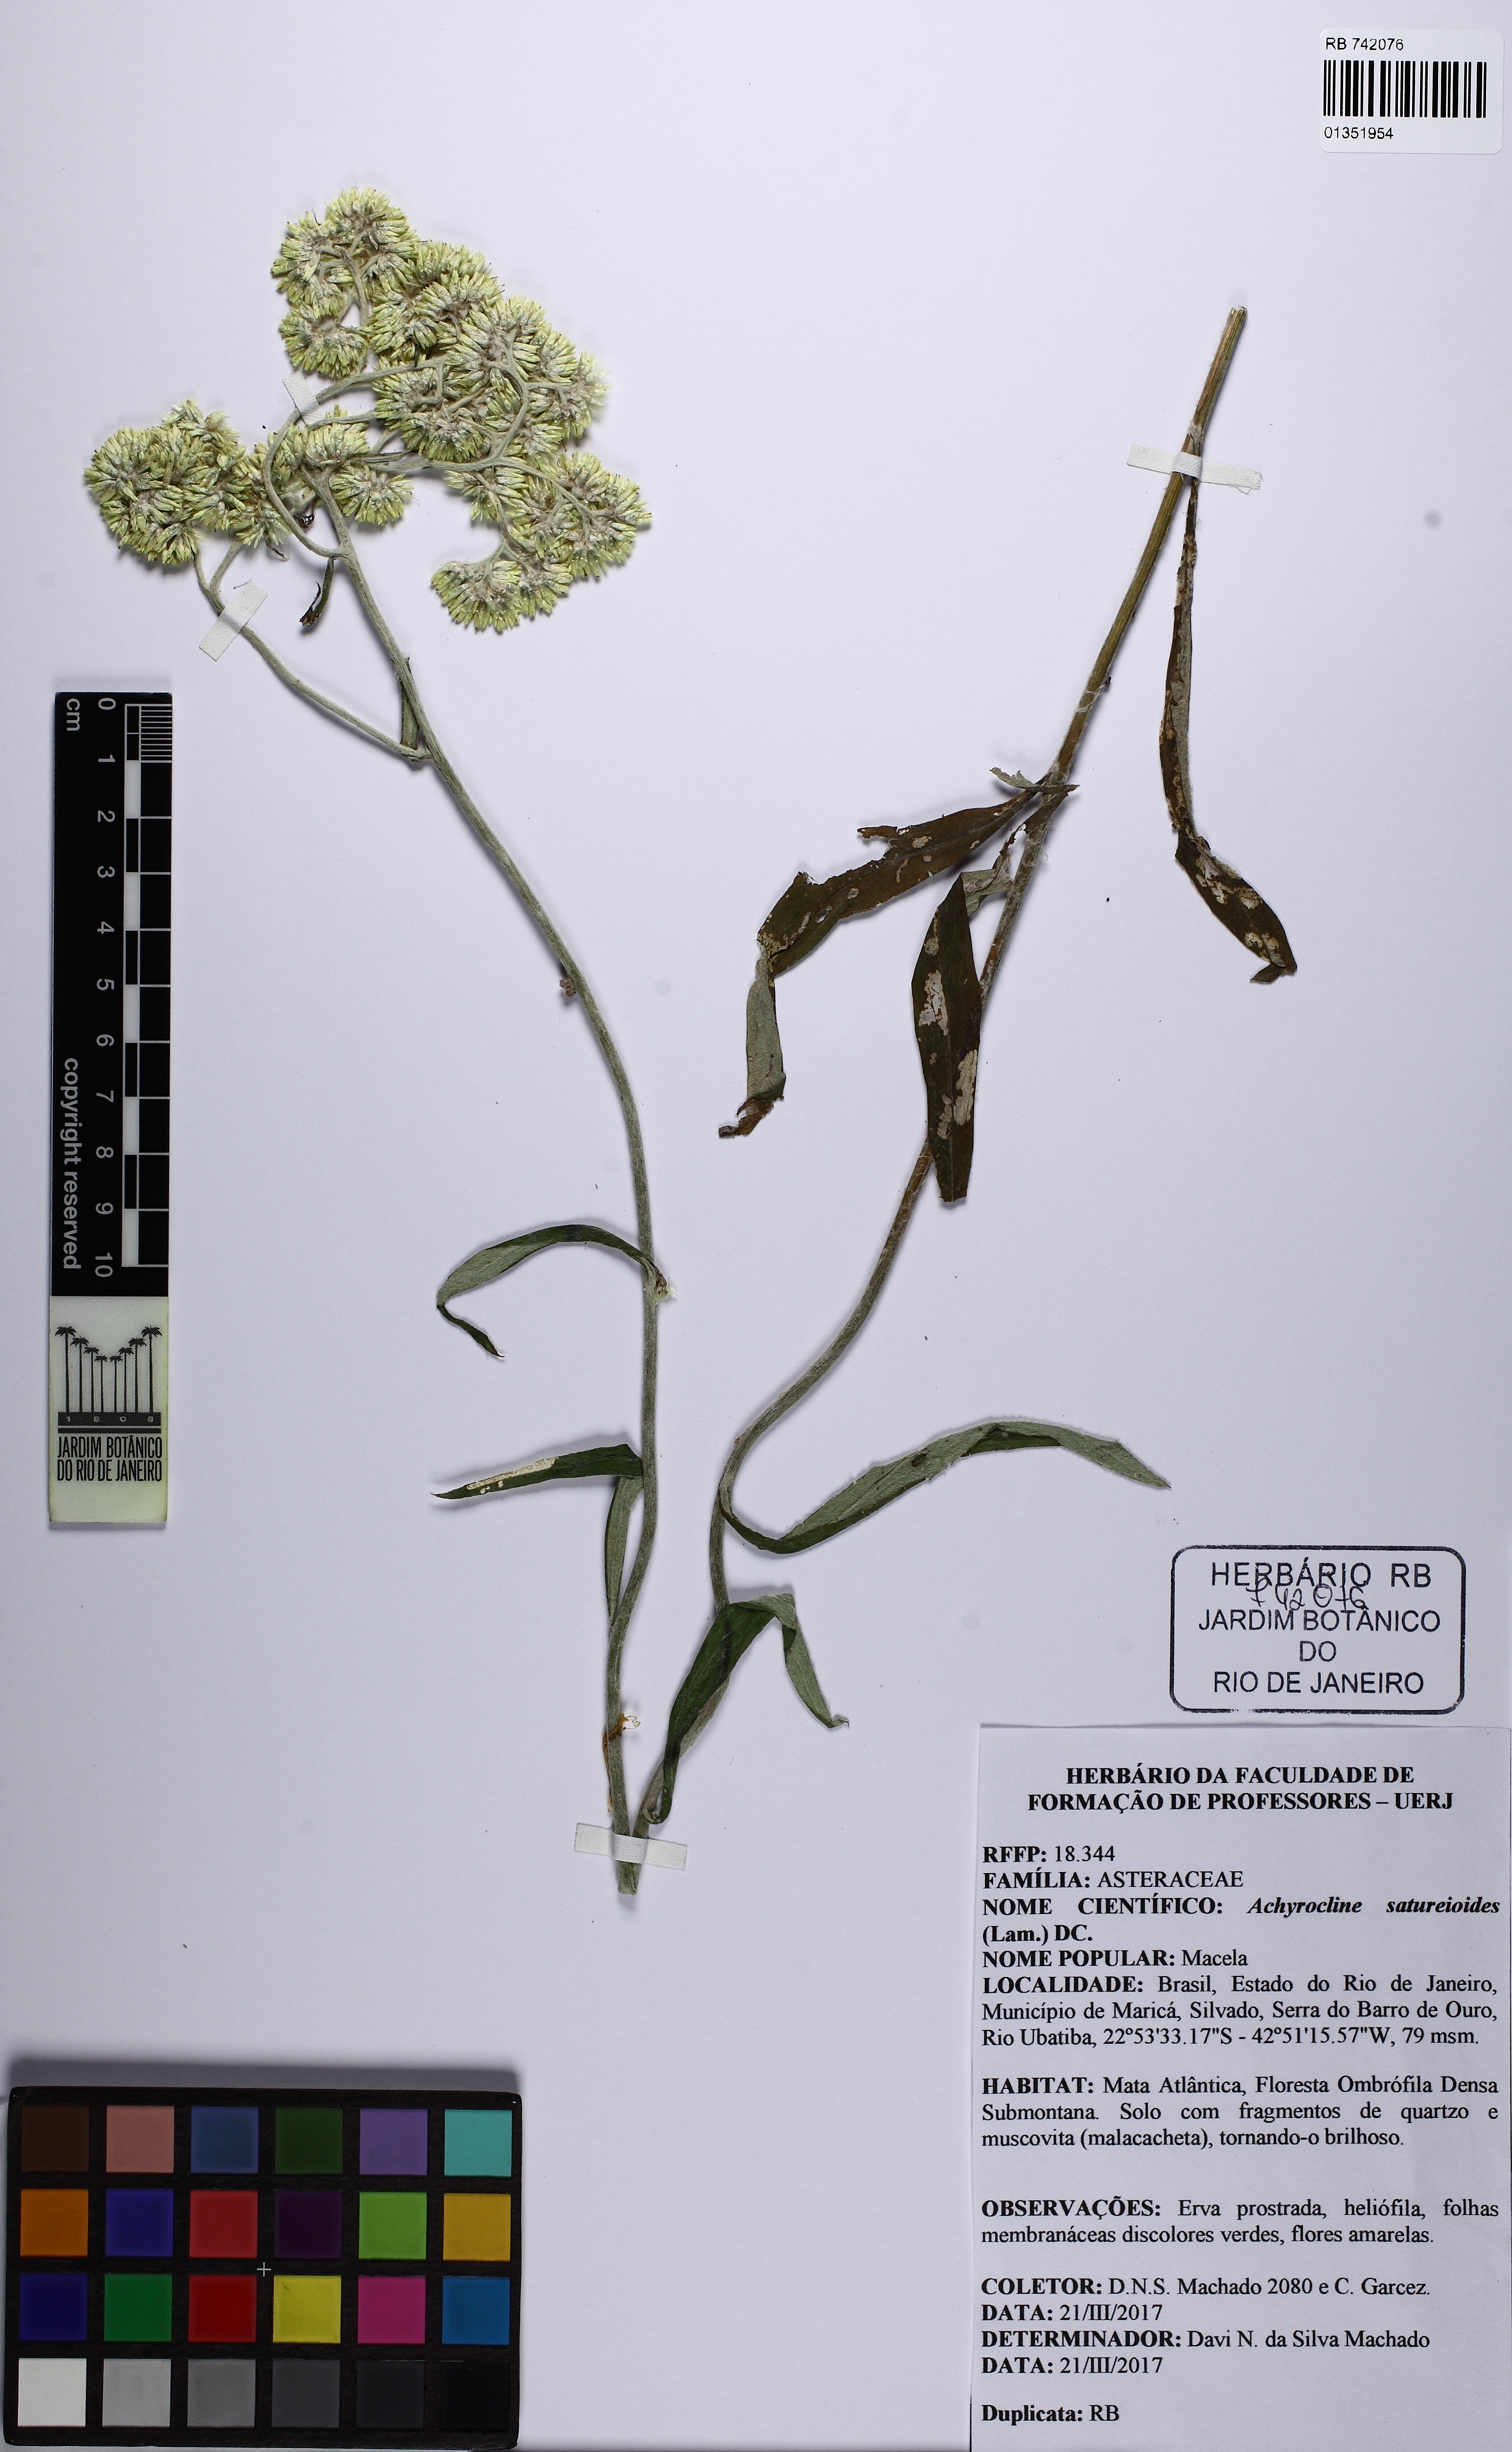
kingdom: Plantae
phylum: Tracheophyta
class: Magnoliopsida
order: Asterales
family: Asteraceae
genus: Achyrocline
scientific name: Achyrocline satureioides
